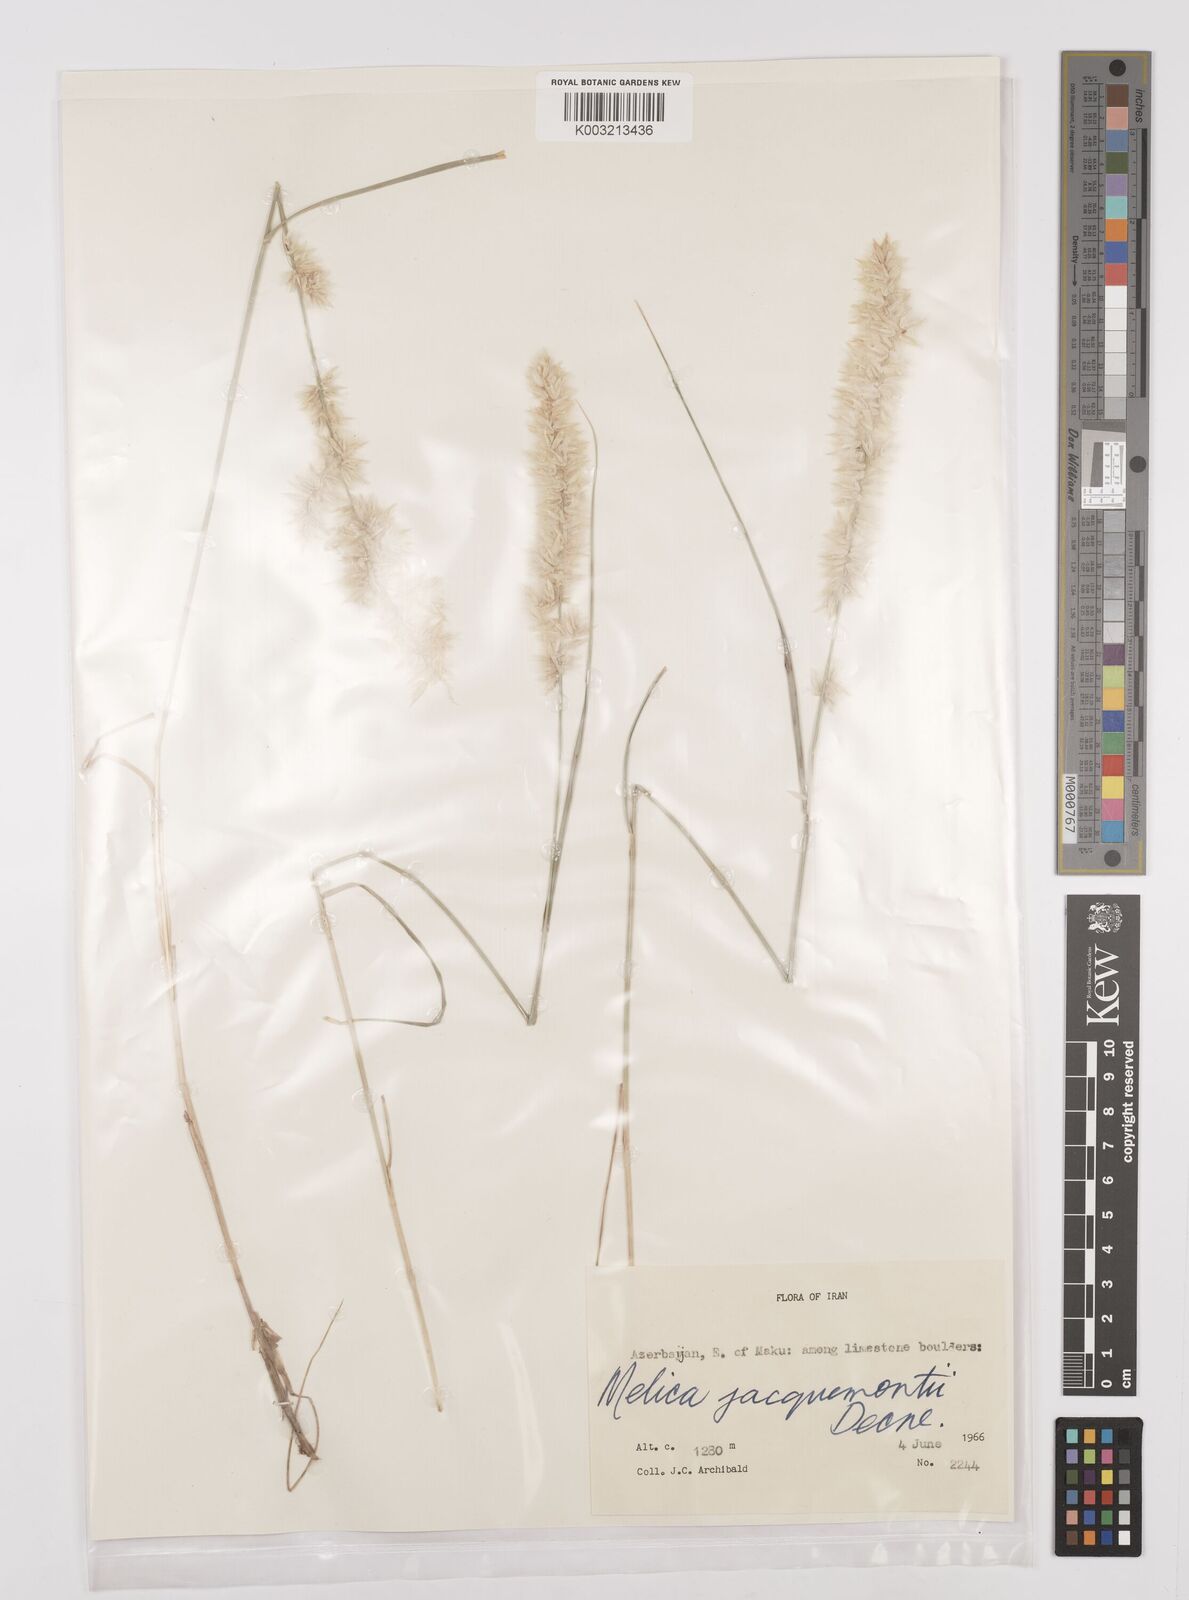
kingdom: Plantae
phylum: Tracheophyta
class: Liliopsida
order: Poales
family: Poaceae
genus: Melica
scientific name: Melica persica
